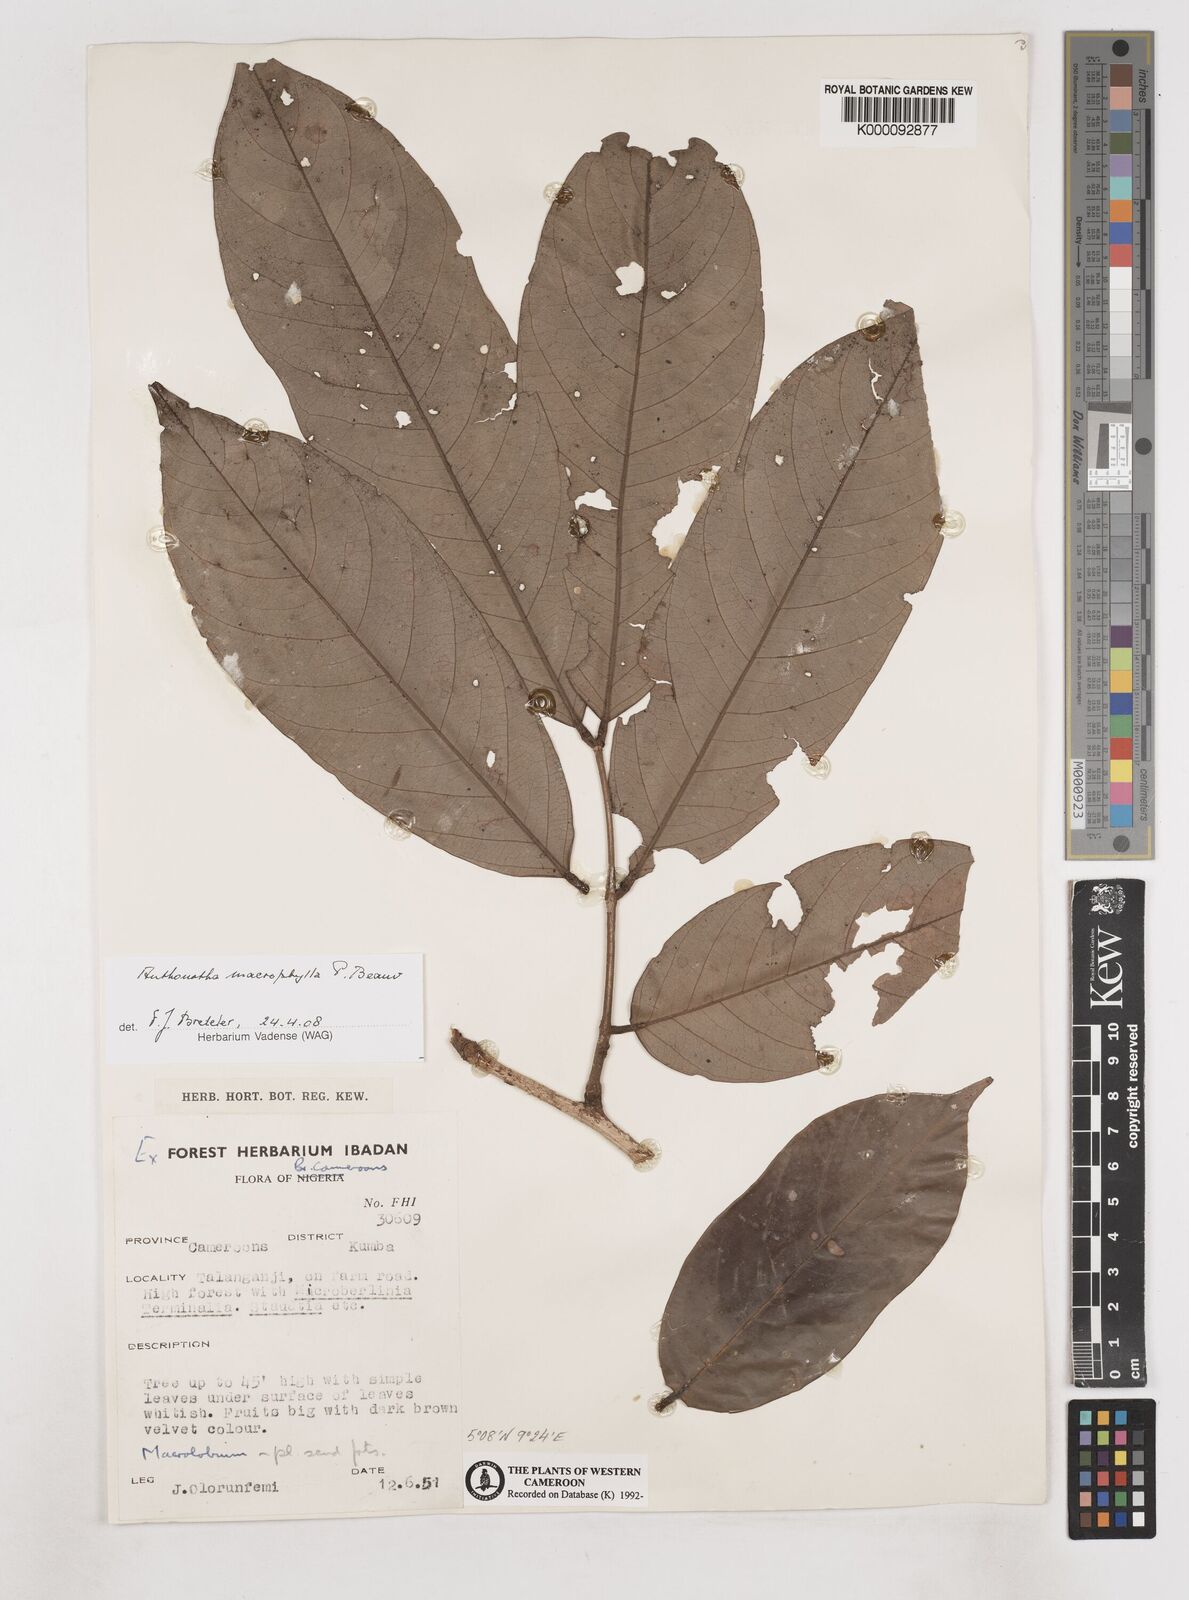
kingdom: Plantae
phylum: Tracheophyta
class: Magnoliopsida
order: Fabales
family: Fabaceae
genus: Anthonotha
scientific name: Anthonotha macrophylla
